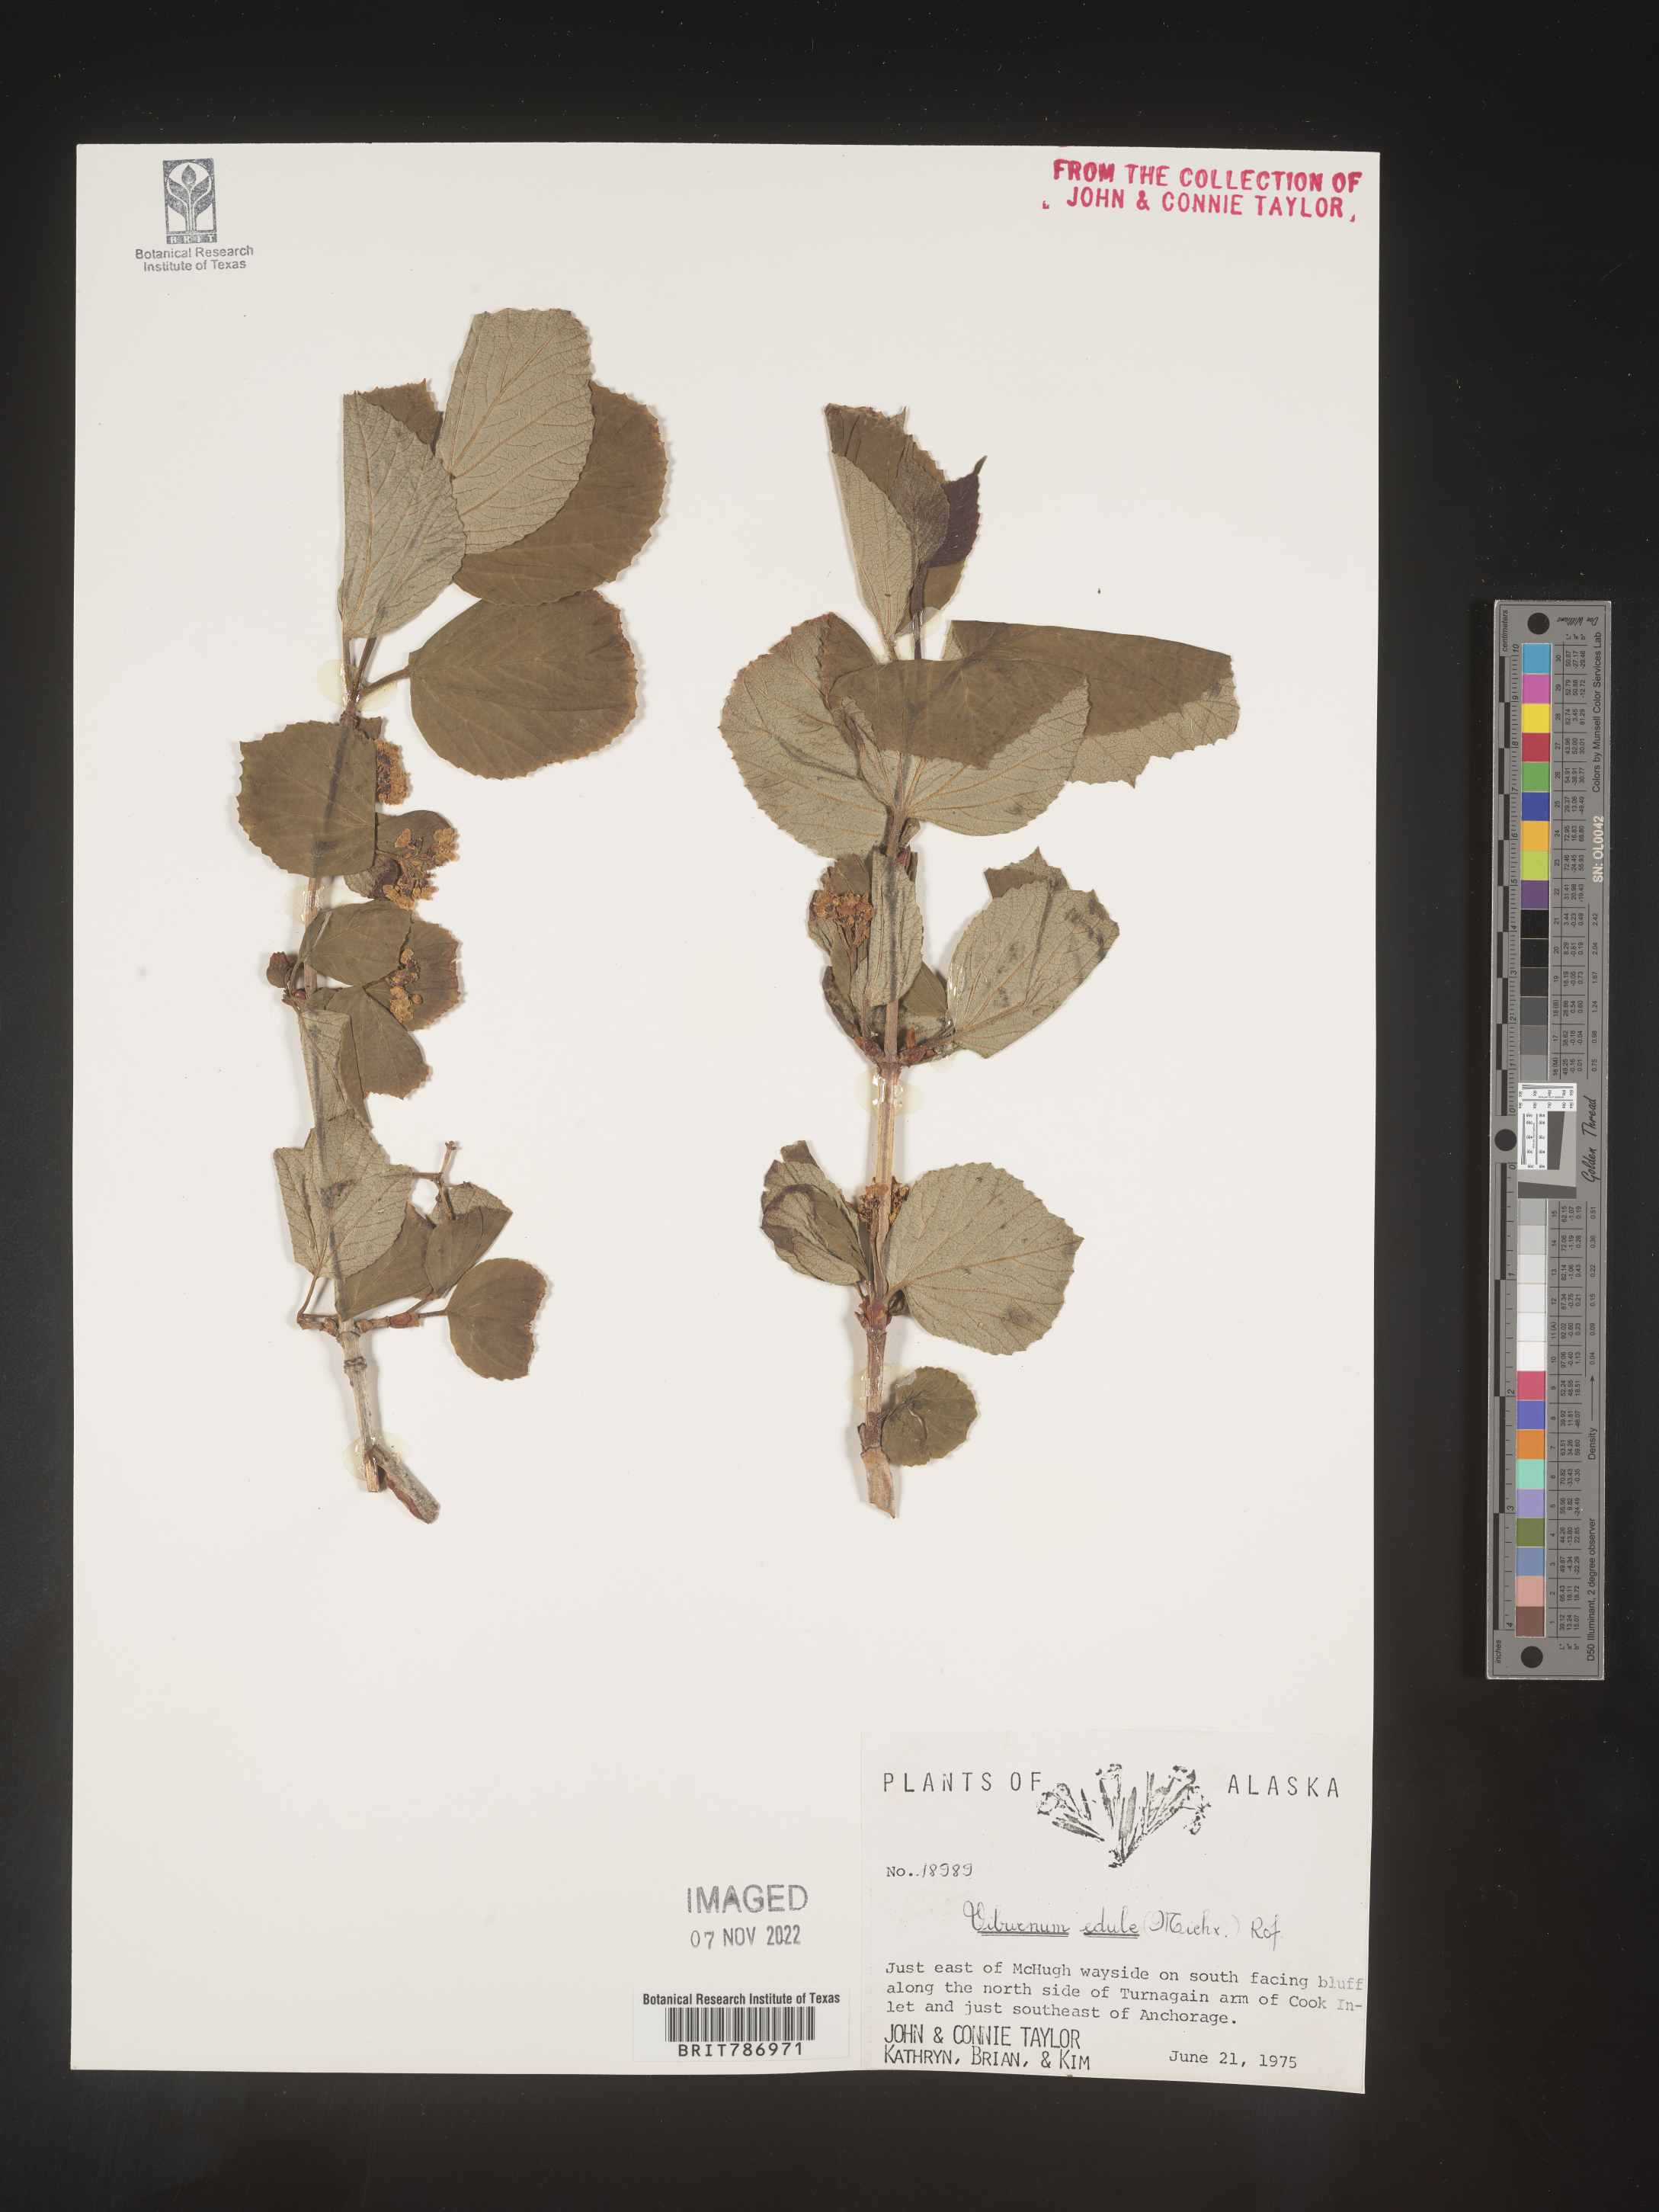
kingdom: Plantae
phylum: Tracheophyta
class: Magnoliopsida
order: Dipsacales
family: Viburnaceae
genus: Viburnum
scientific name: Viburnum edule
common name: Mooseberry
